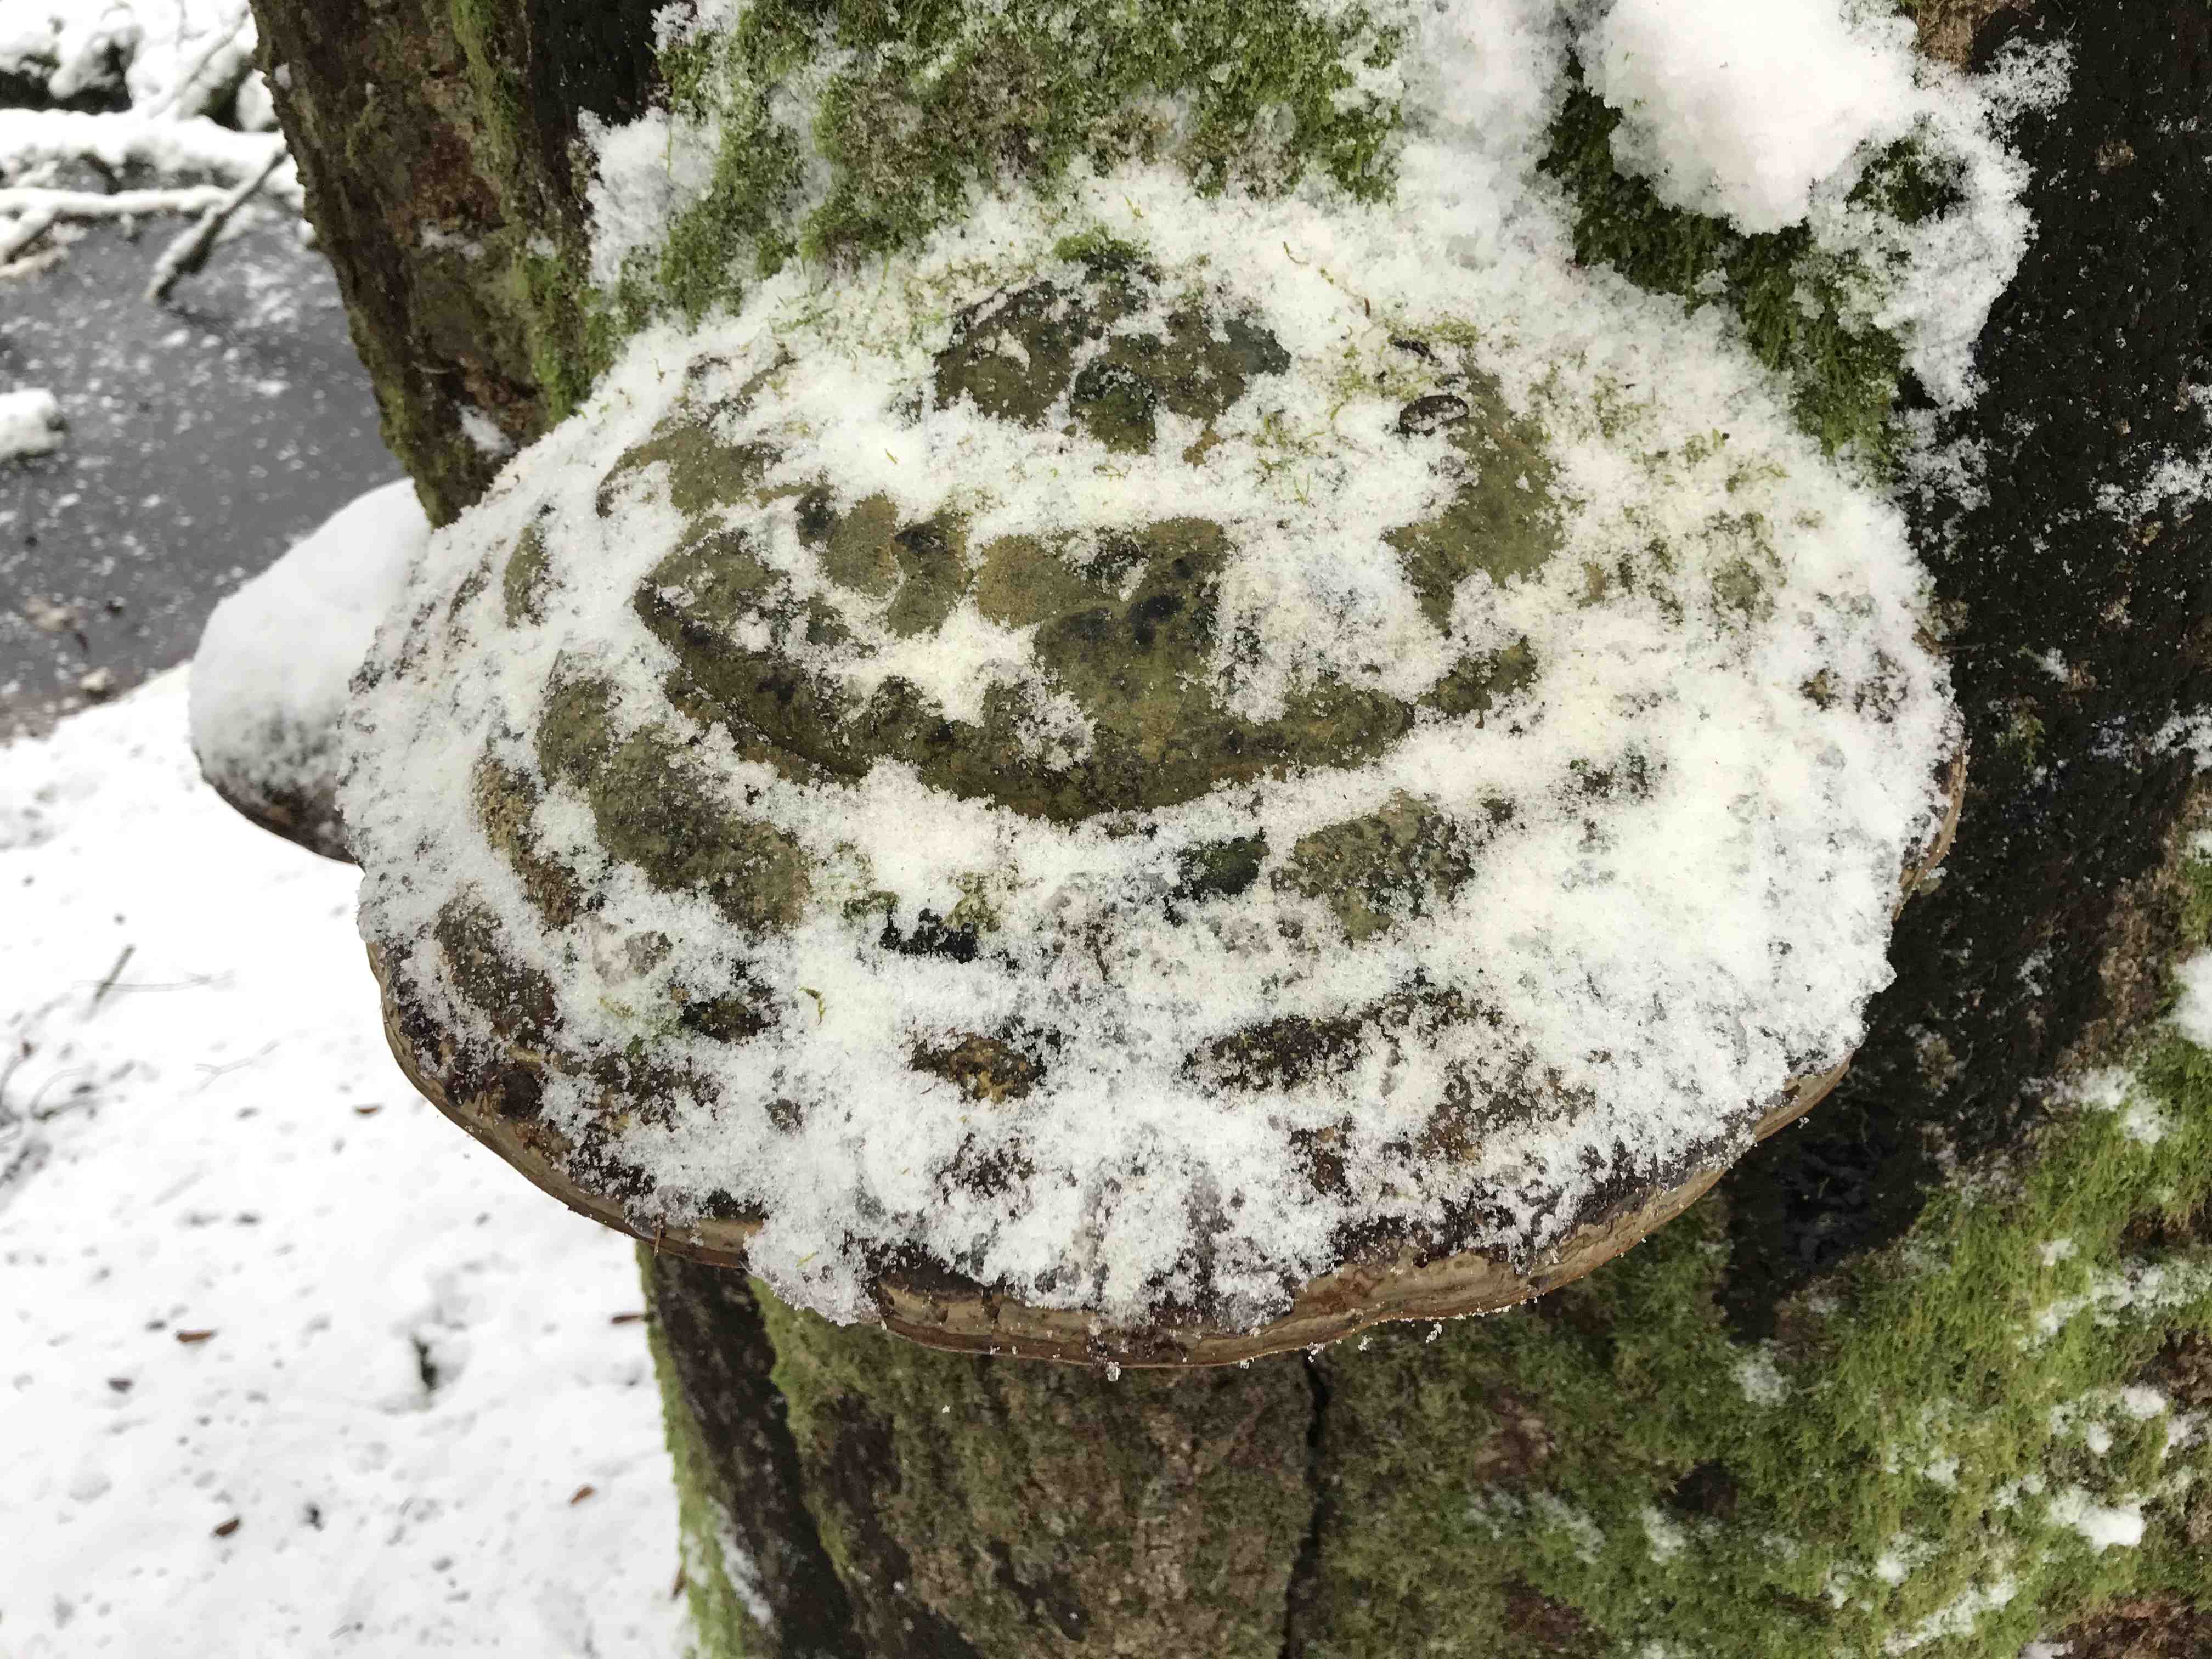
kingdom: Fungi
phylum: Basidiomycota
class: Agaricomycetes
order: Polyporales
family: Polyporaceae
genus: Fomes
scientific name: Fomes fomentarius
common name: tøndersvamp
